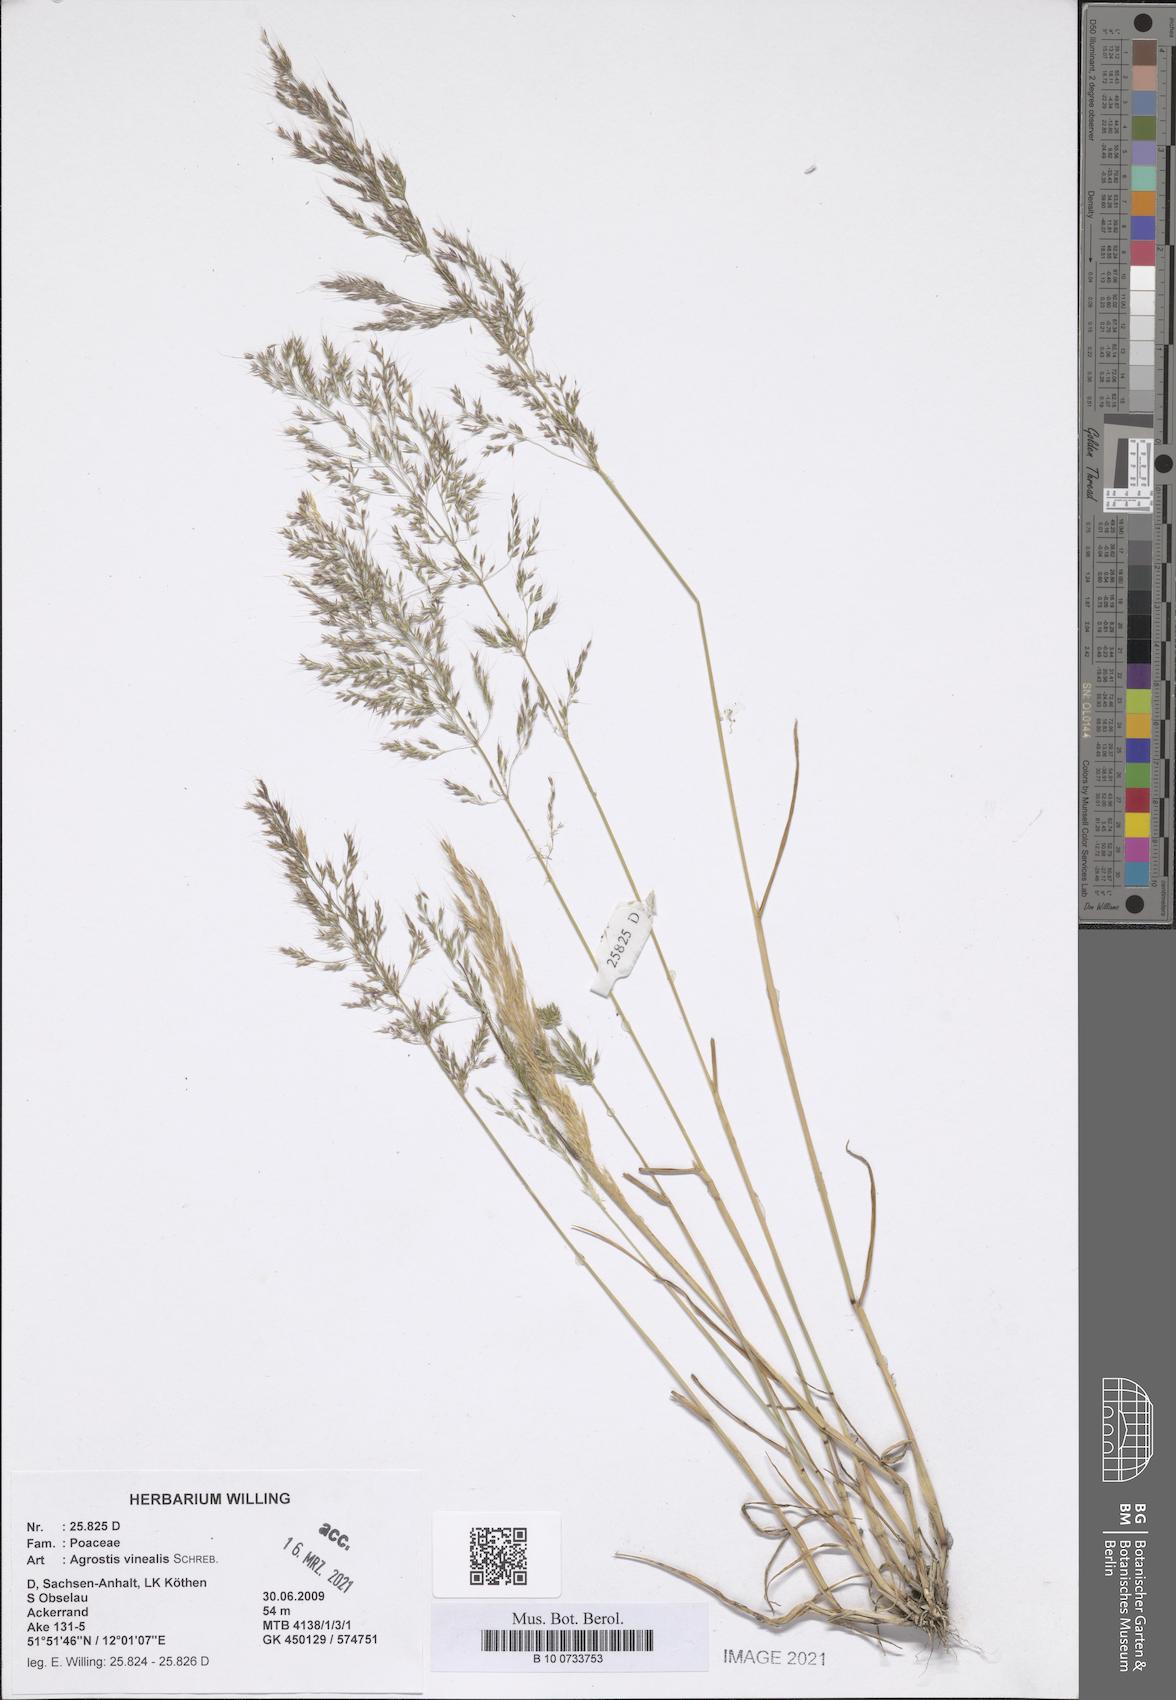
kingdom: Plantae
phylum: Tracheophyta
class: Liliopsida
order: Poales
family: Poaceae
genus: Agrostis
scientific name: Agrostis vinealis
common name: Brown bent
